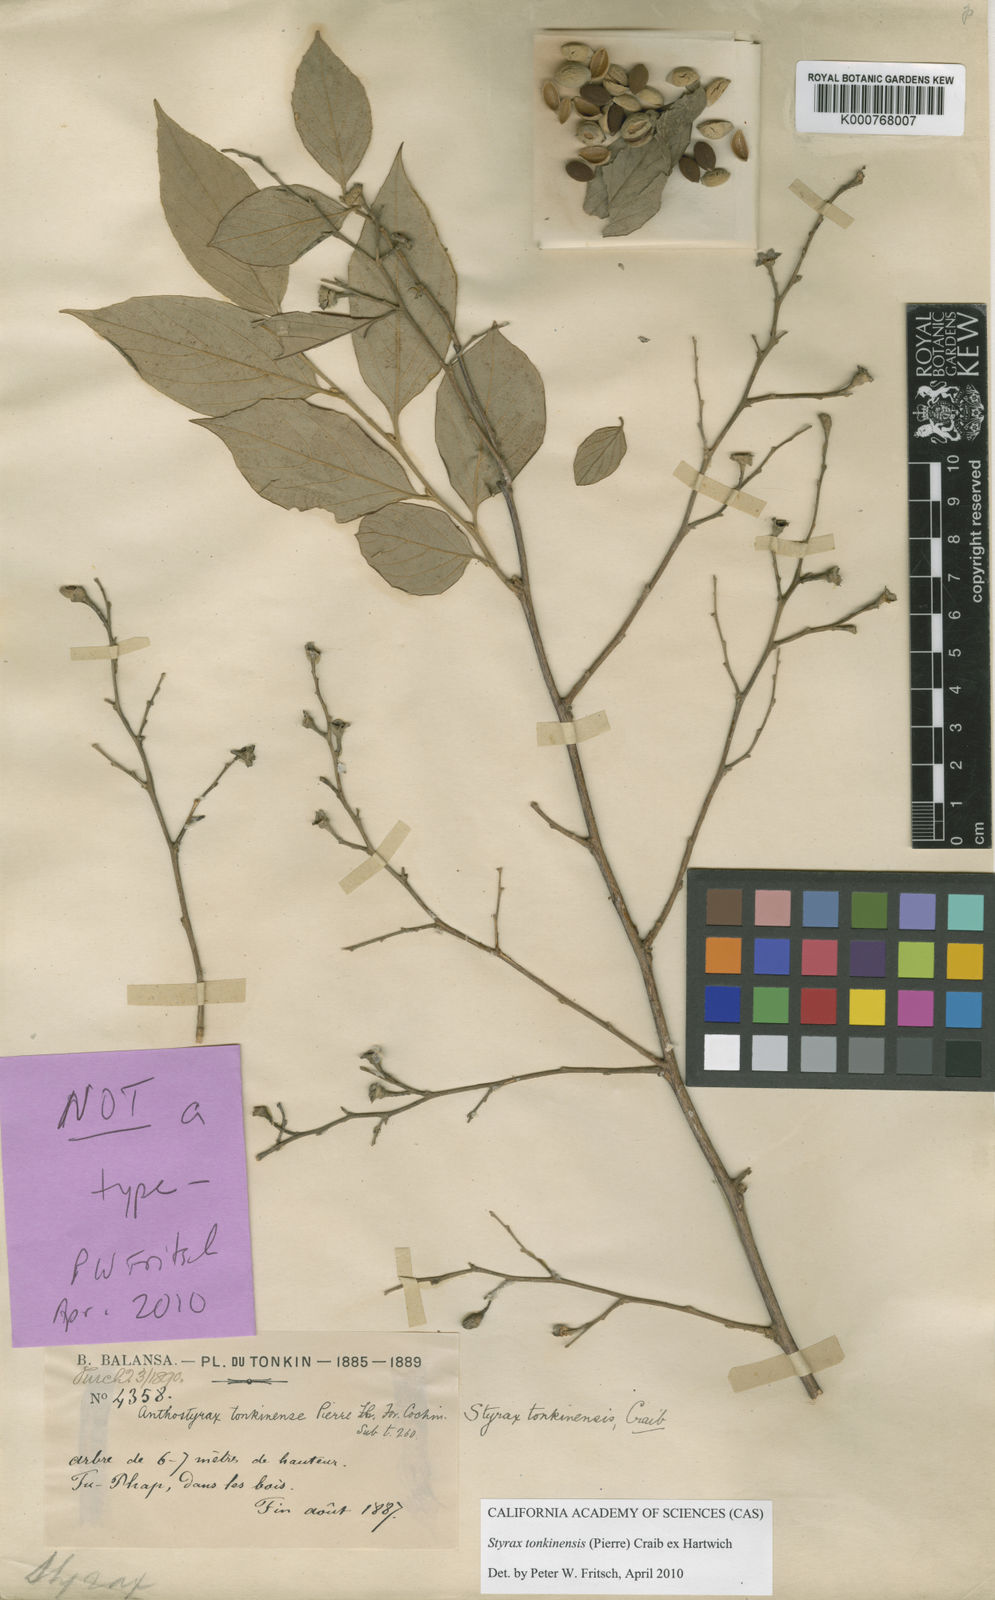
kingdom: Plantae
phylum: Tracheophyta
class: Magnoliopsida
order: Ericales
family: Styracaceae
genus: Styrax
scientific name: Styrax tonkinensis
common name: Siam benzoin
